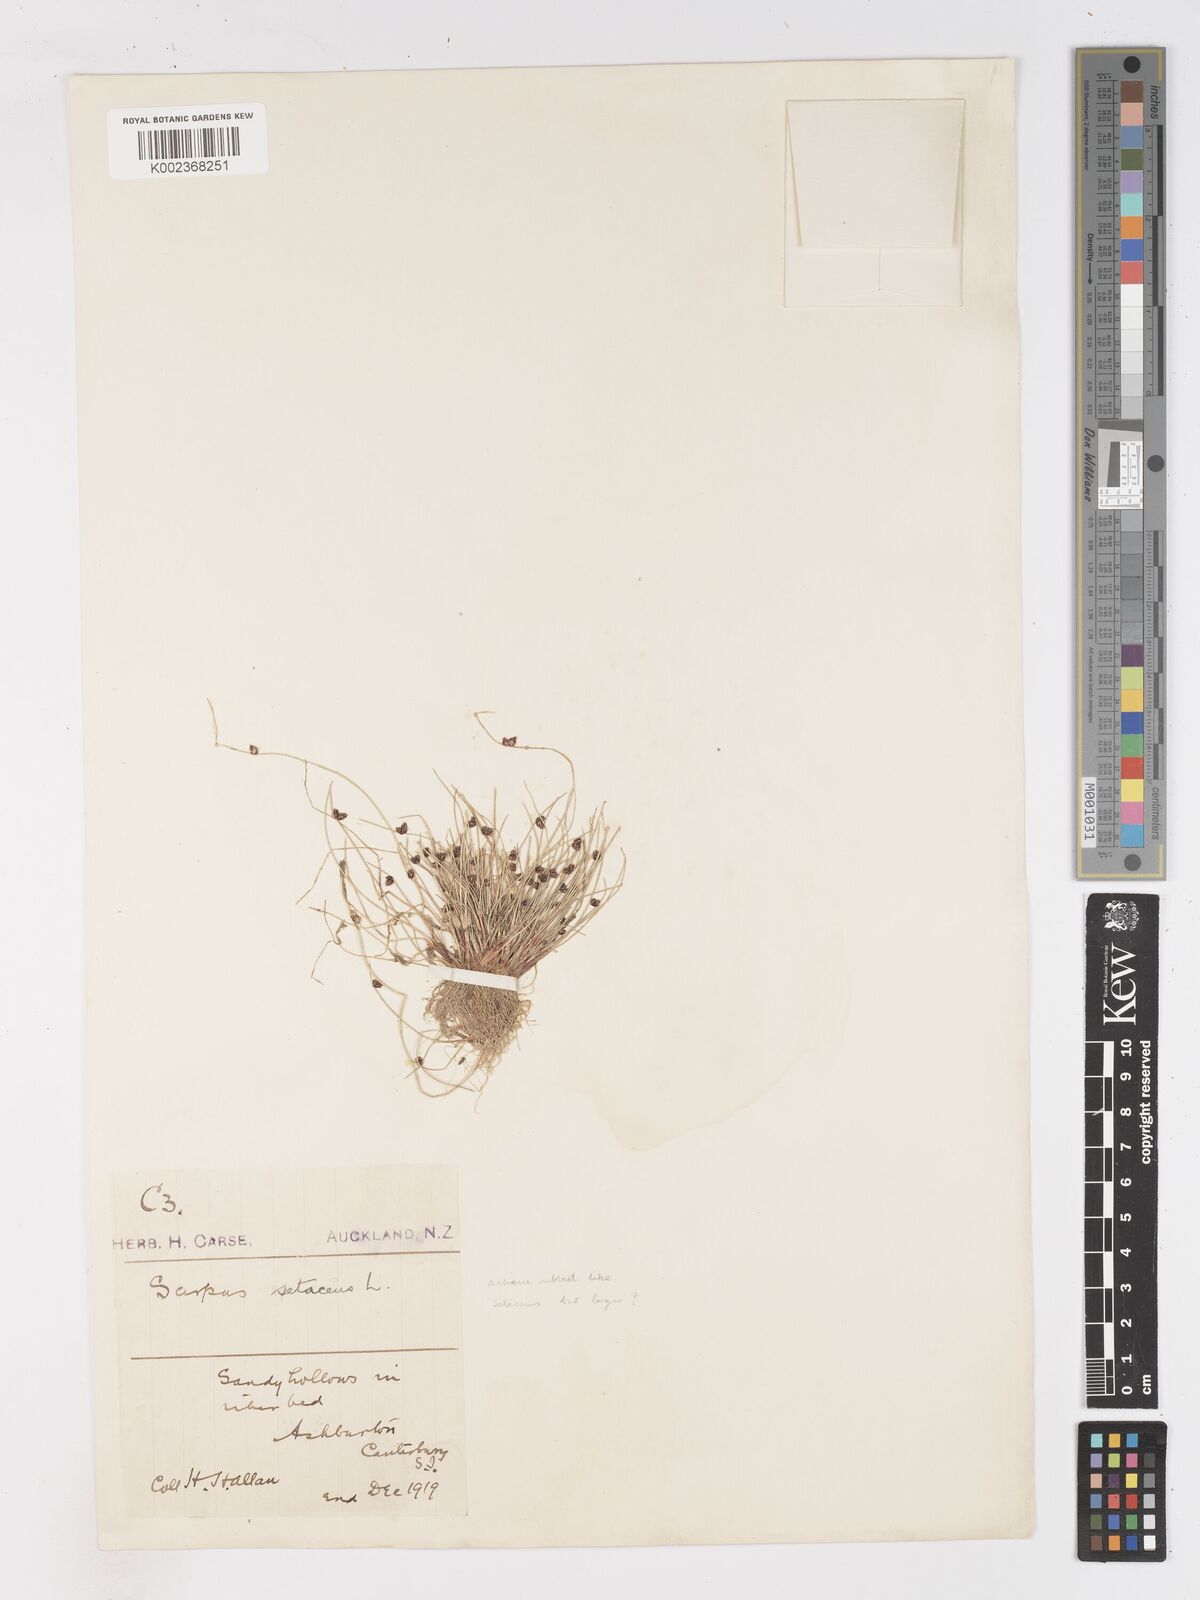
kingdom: Plantae
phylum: Tracheophyta
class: Liliopsida
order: Poales
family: Cyperaceae
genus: Isolepis
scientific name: Isolepis setacea
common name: Bristle club-rush
